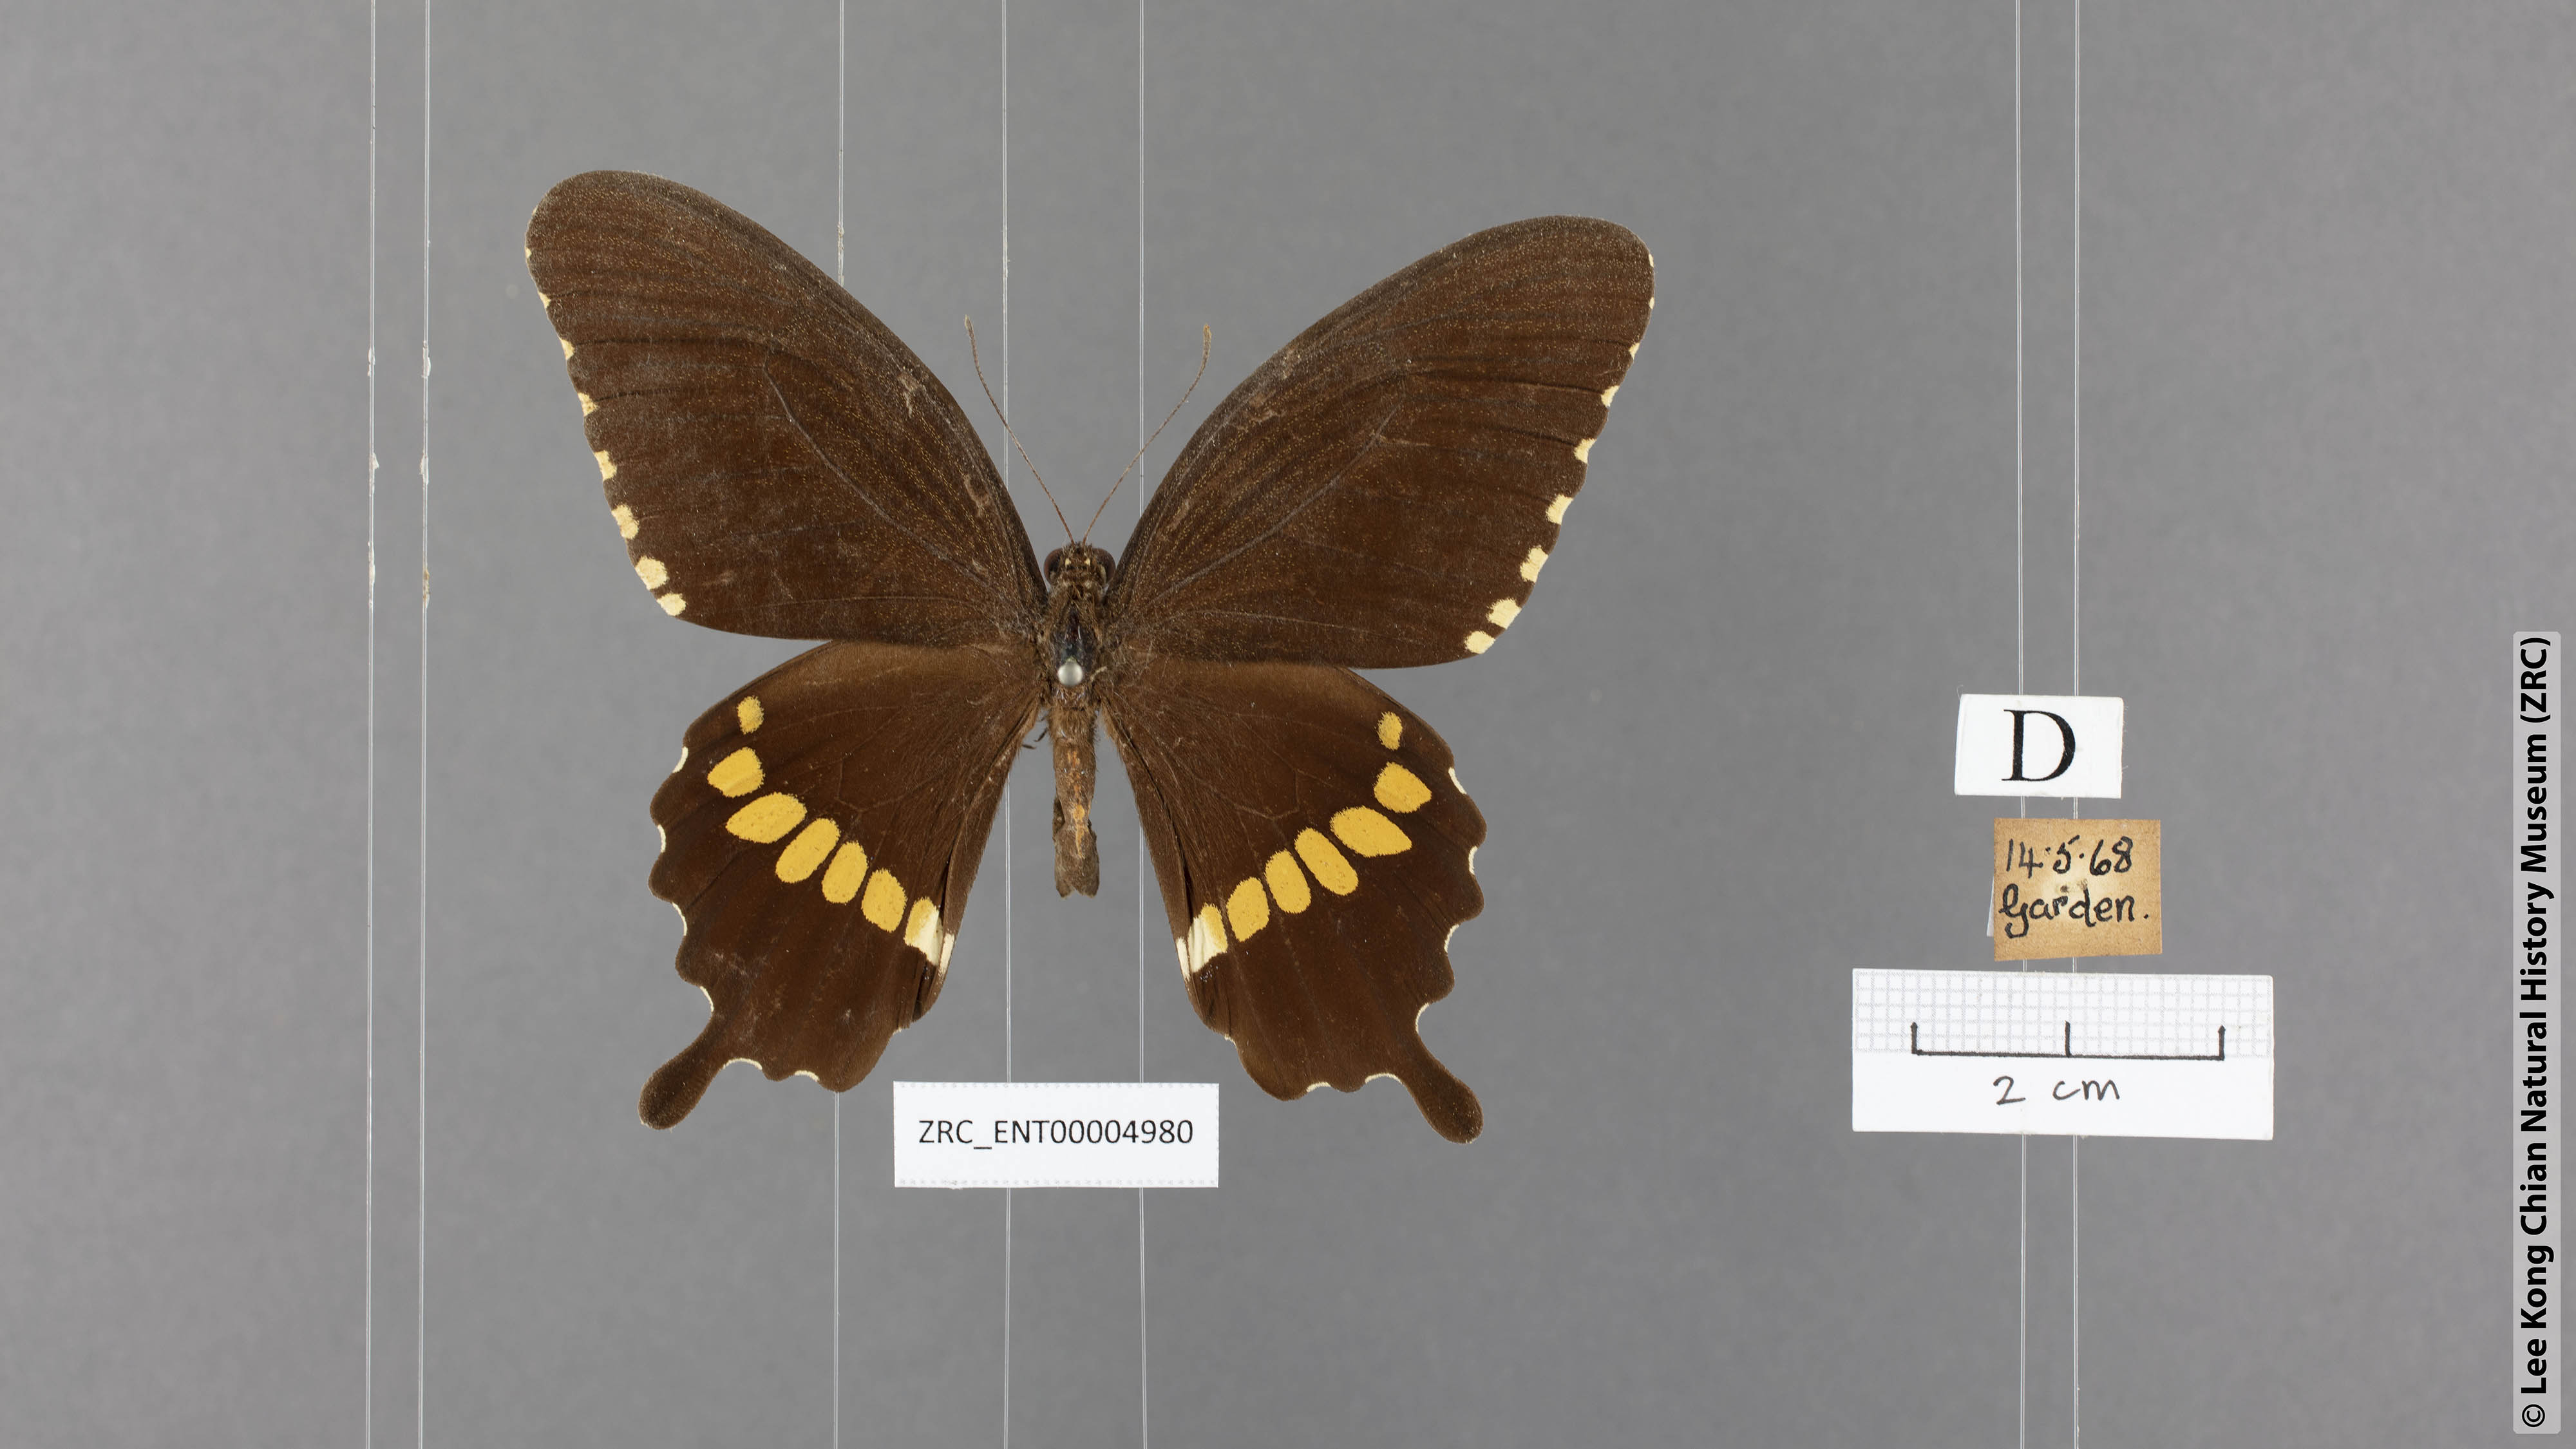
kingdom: Animalia
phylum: Arthropoda
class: Insecta
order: Lepidoptera
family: Papilionidae
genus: Papilio
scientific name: Papilio polytes
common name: Common mormon
